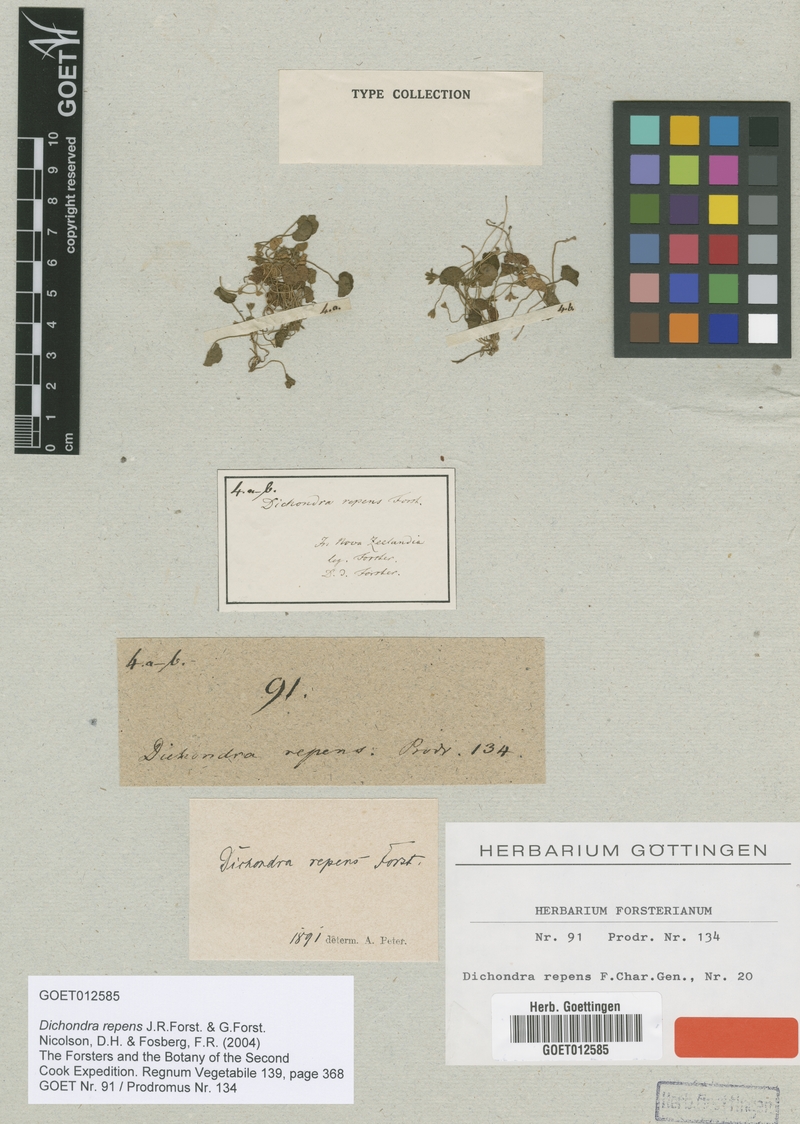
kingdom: Plantae
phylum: Tracheophyta
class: Magnoliopsida
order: Solanales
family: Convolvulaceae
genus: Dichondra
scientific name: Dichondra repens
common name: Kidneyweed
